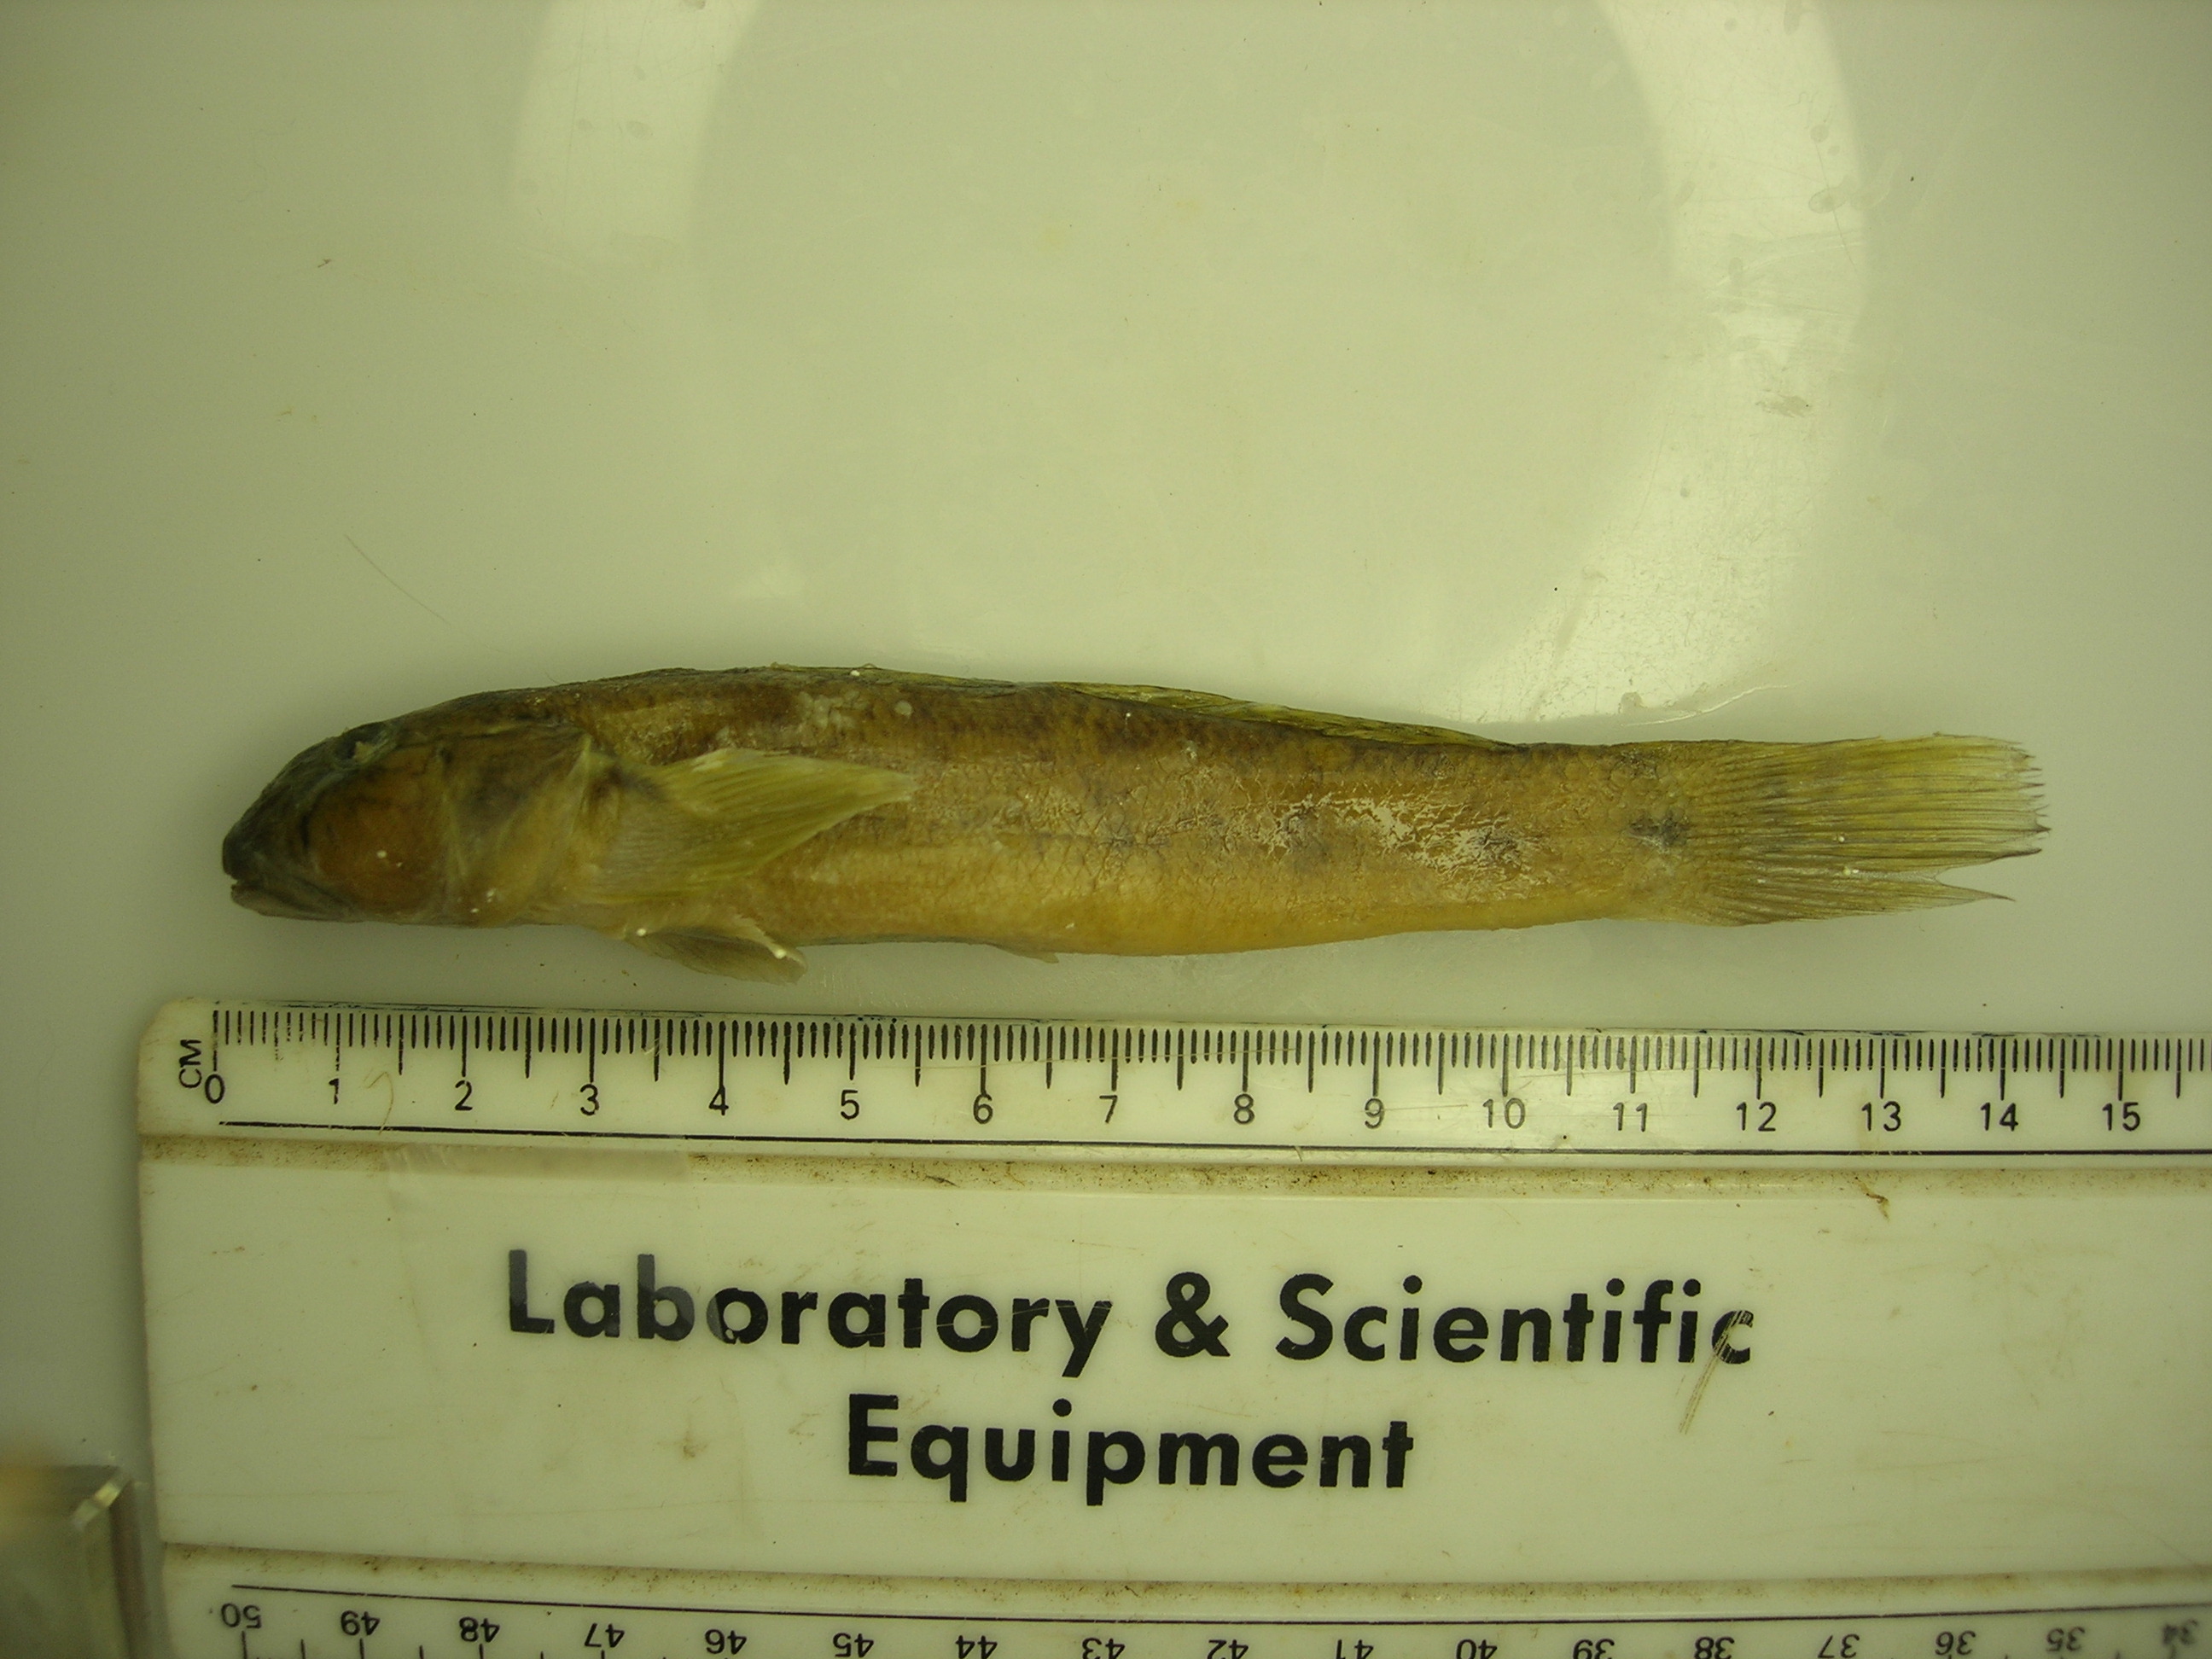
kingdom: Animalia
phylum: Chordata
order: Perciformes
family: Gobiidae
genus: Awaous
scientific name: Awaous aeneofuscus
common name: Freshwater goby
